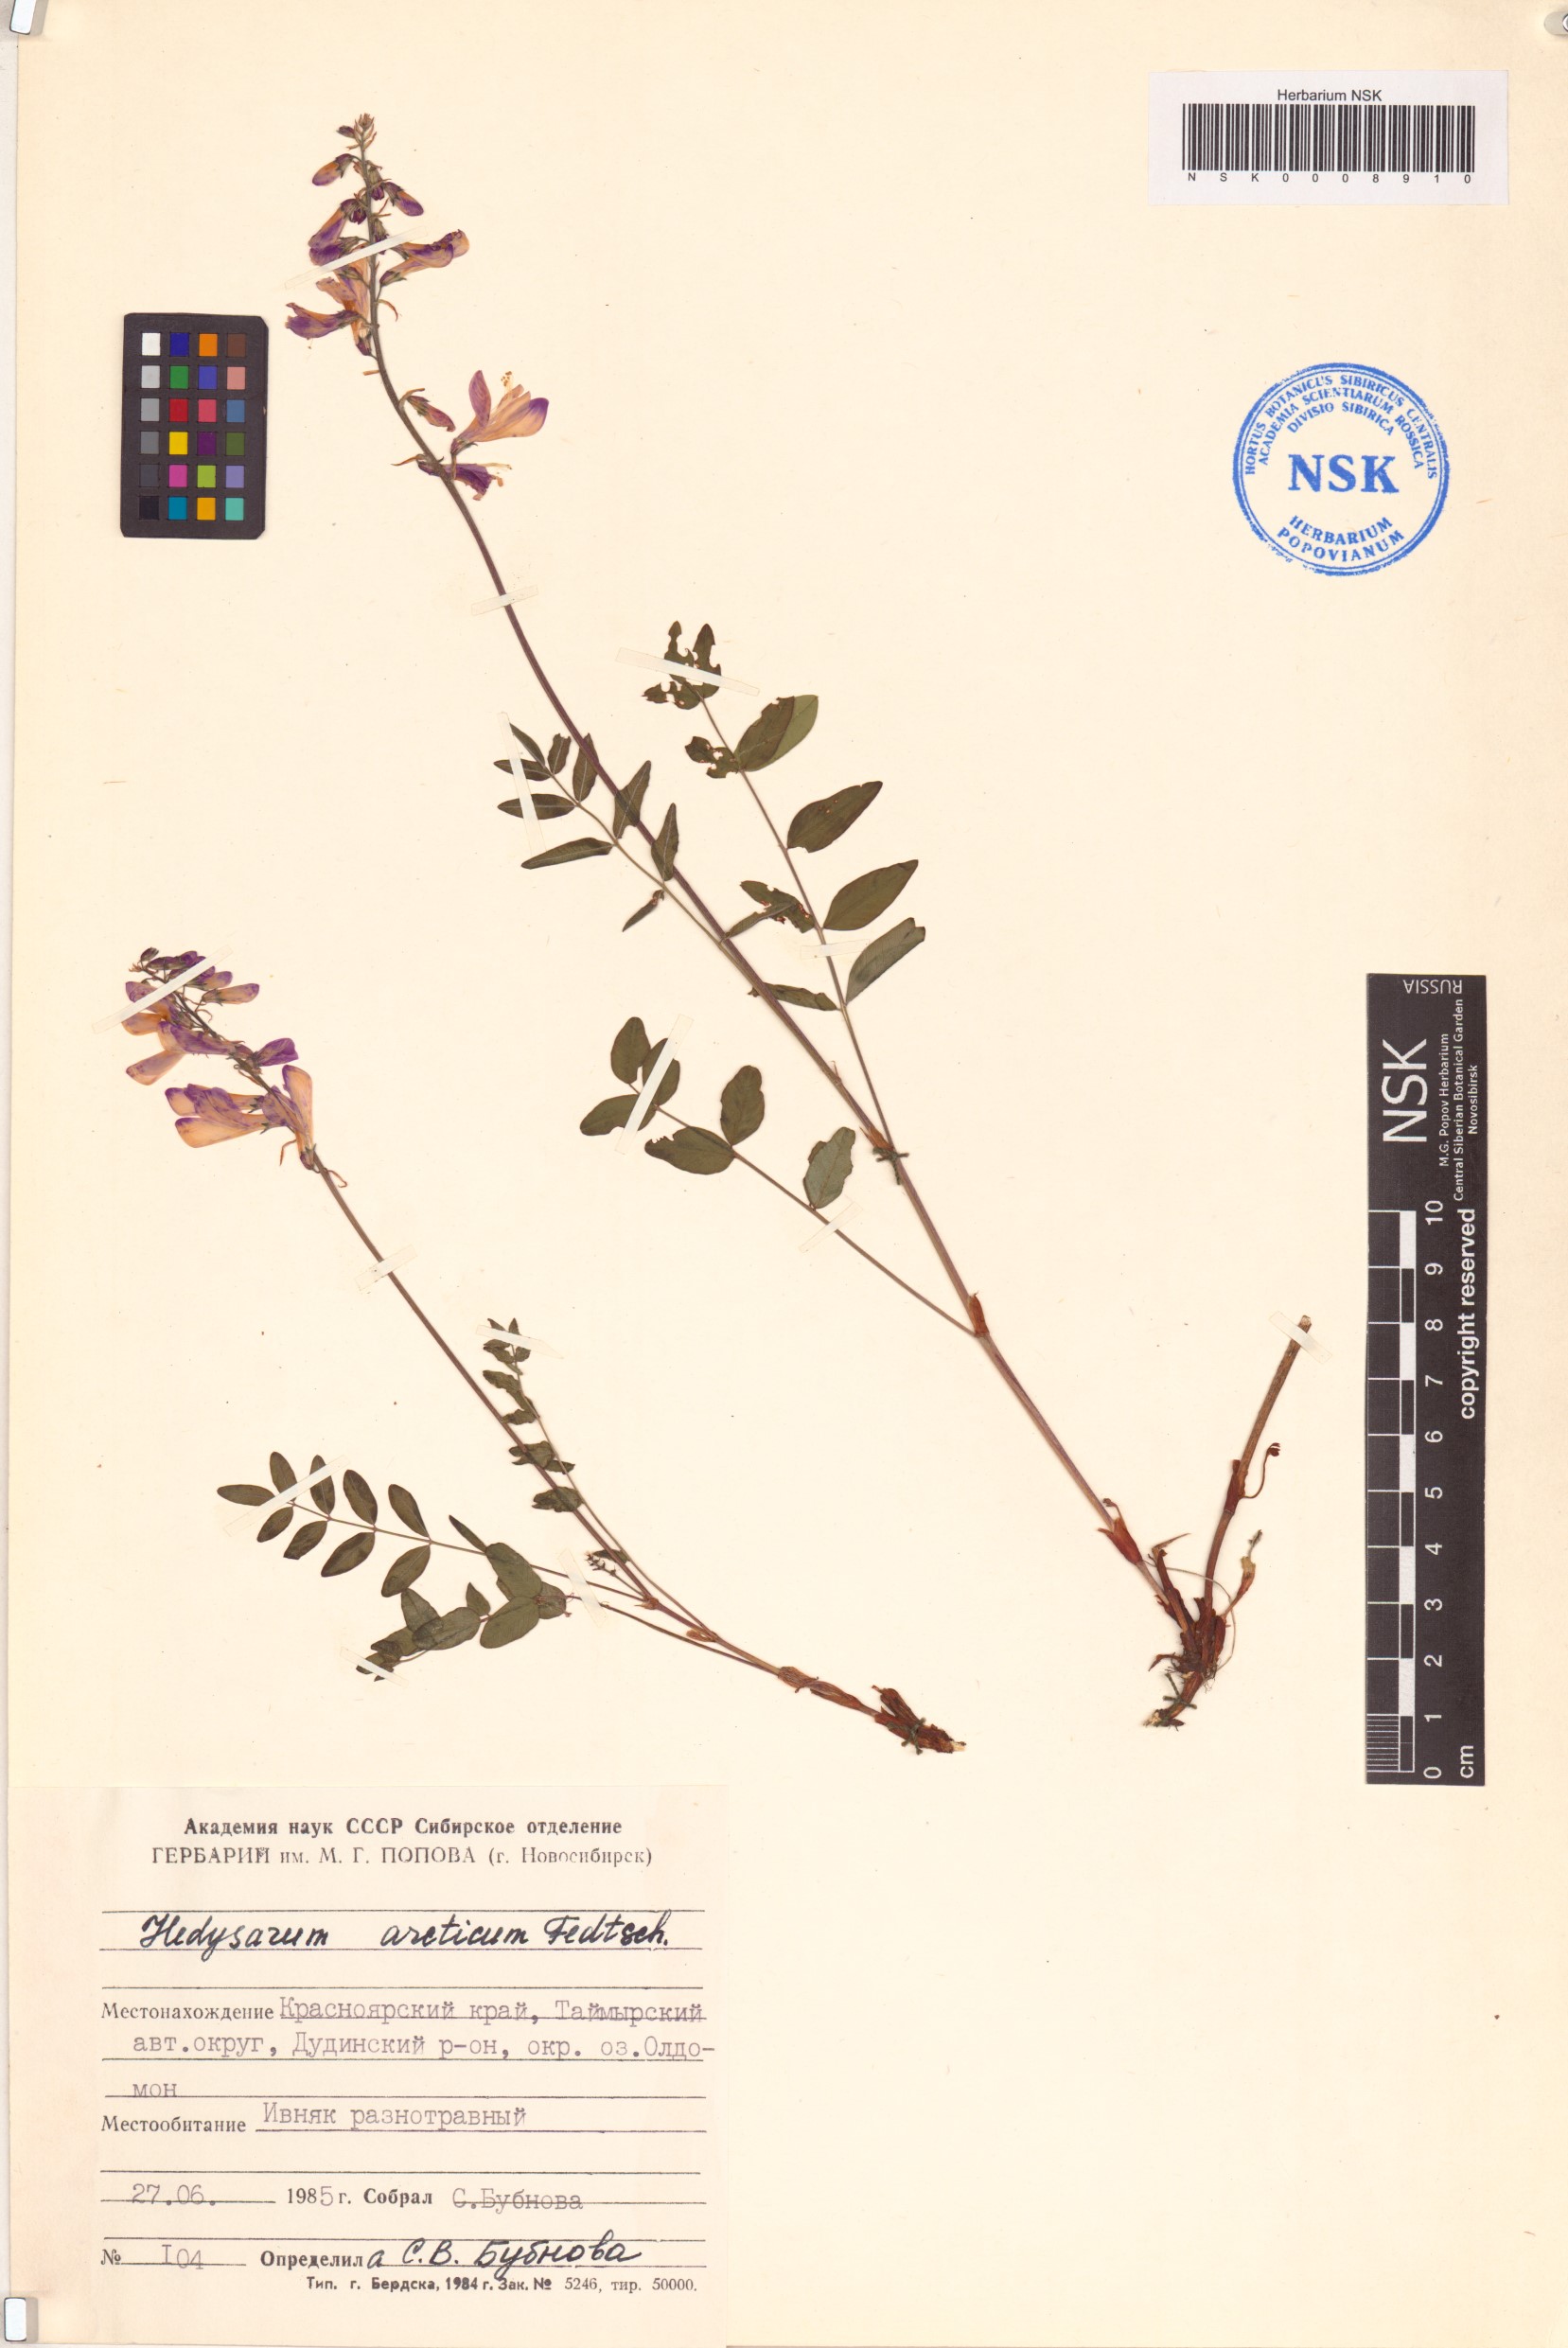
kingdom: Plantae
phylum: Tracheophyta
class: Magnoliopsida
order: Fabales
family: Fabaceae
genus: Hedysarum
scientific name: Hedysarum hedysaroides
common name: Alpine french-honeysuckle
